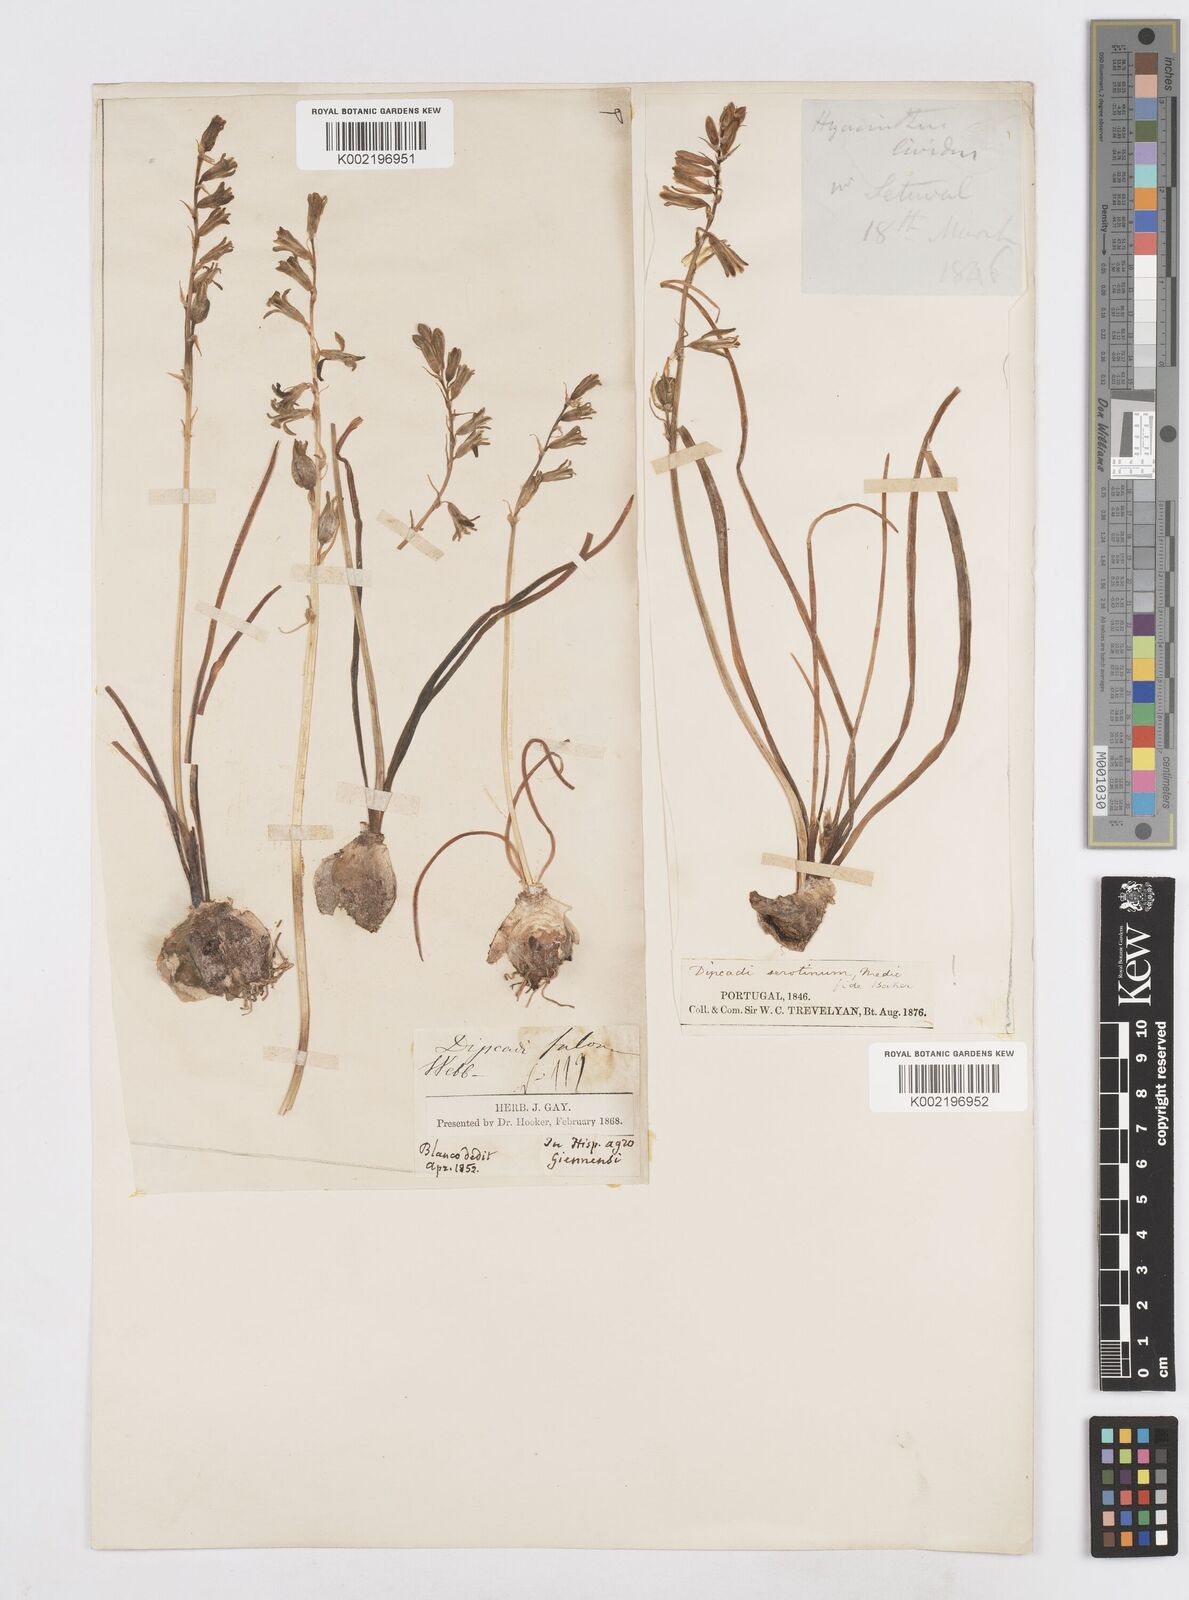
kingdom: Plantae
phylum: Tracheophyta
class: Liliopsida
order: Asparagales
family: Asparagaceae
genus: Dipcadi
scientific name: Dipcadi serotinum
